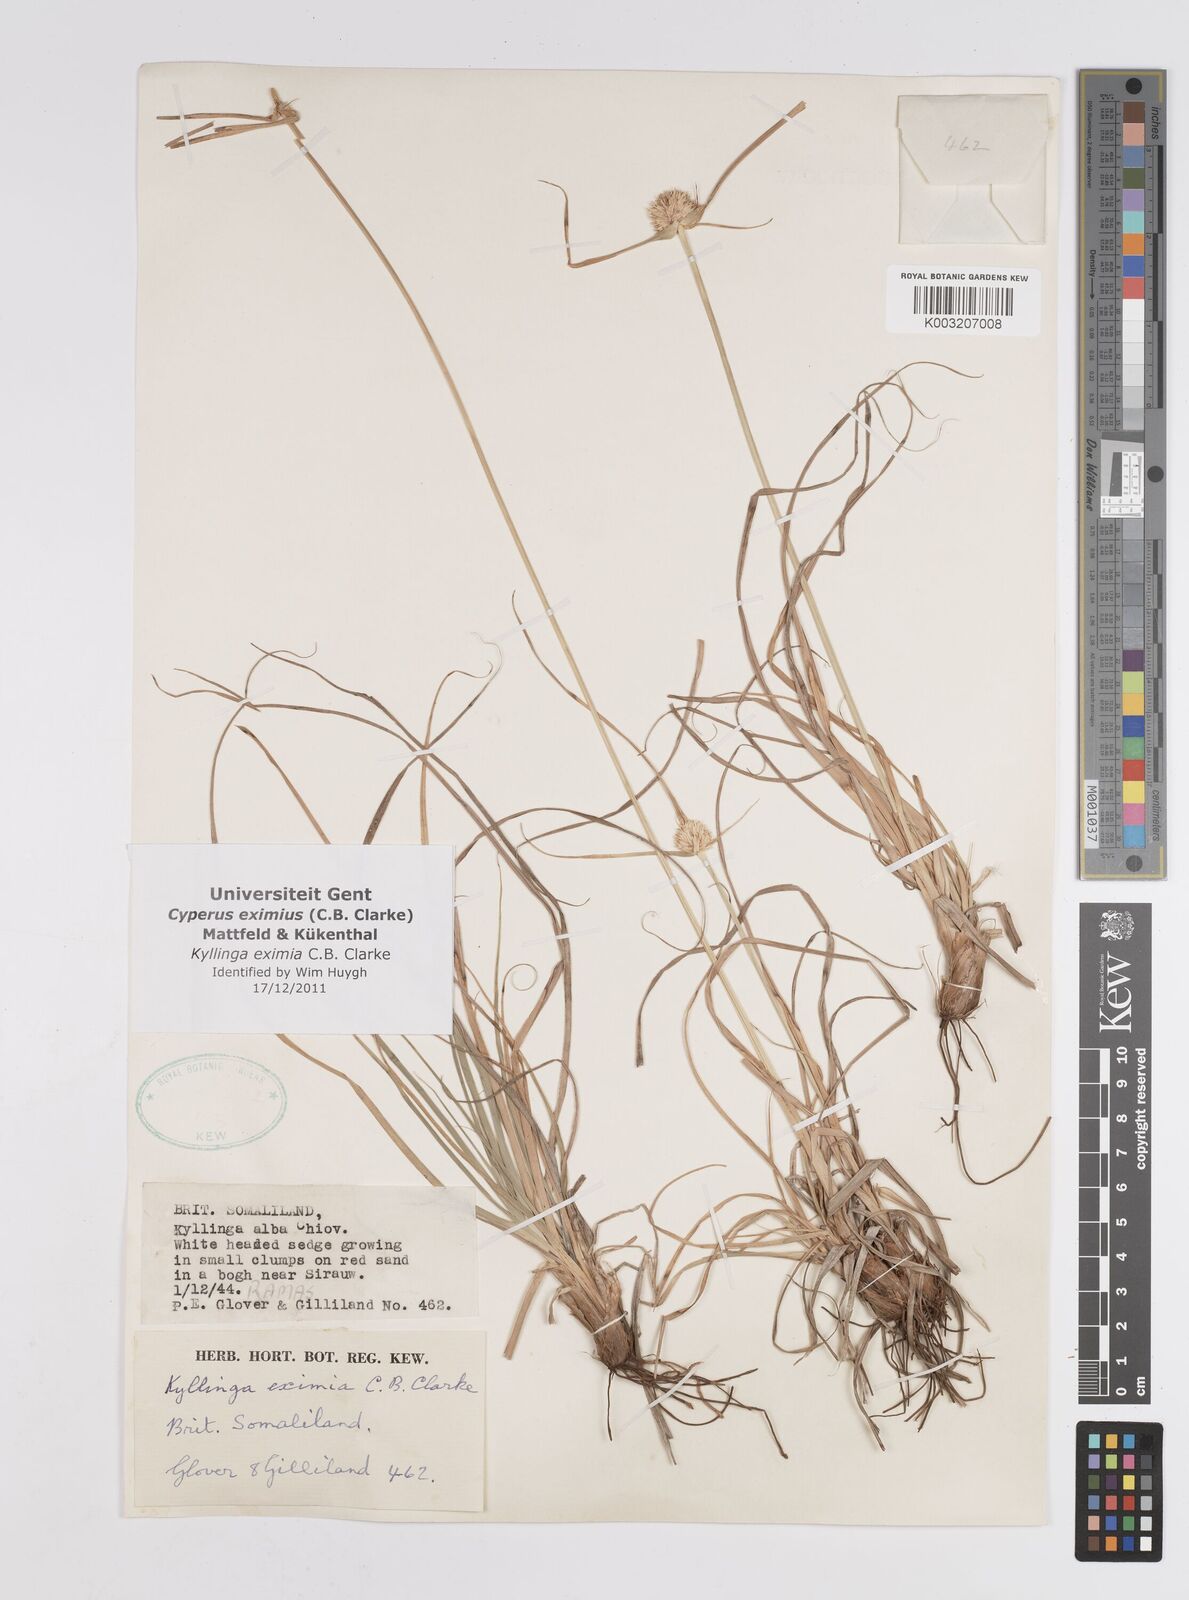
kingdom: Plantae
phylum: Tracheophyta
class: Liliopsida
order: Poales
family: Cyperaceae
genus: Cyperus
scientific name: Cyperus eximius
